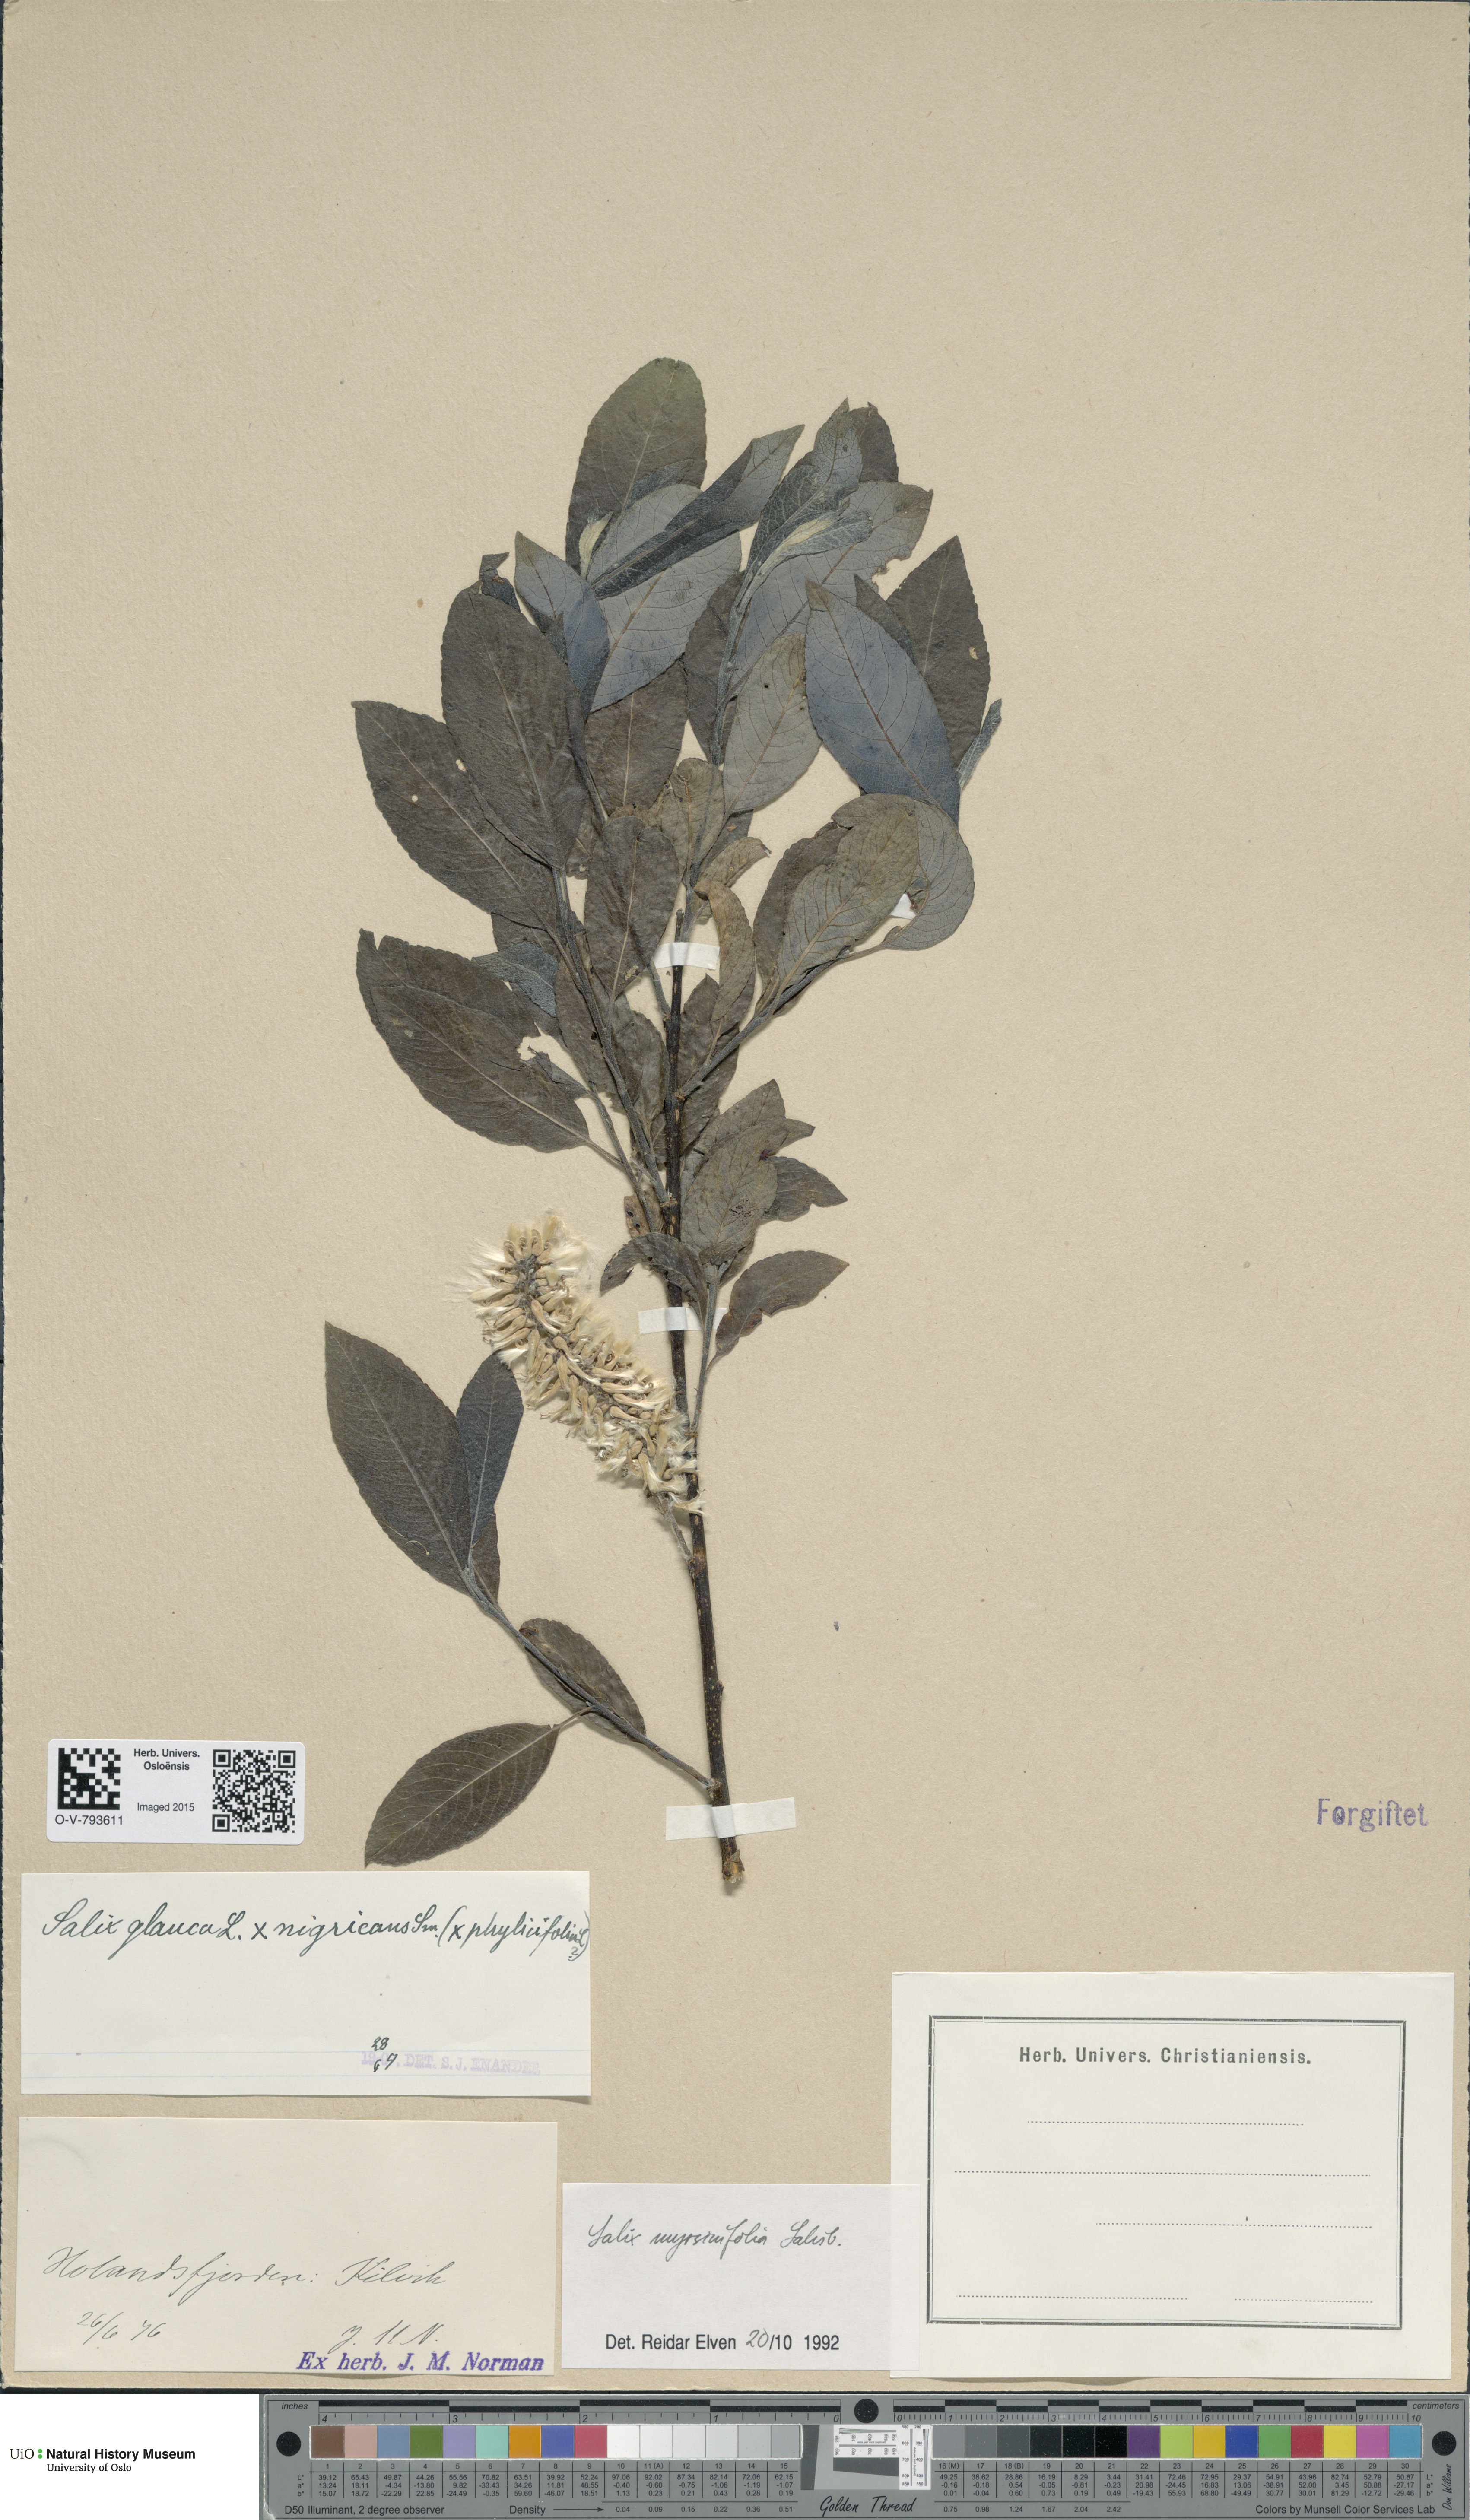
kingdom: Plantae
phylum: Tracheophyta
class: Magnoliopsida
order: Malpighiales
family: Salicaceae
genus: Salix
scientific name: Salix myrsinifolia
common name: Dark-leaved willow
